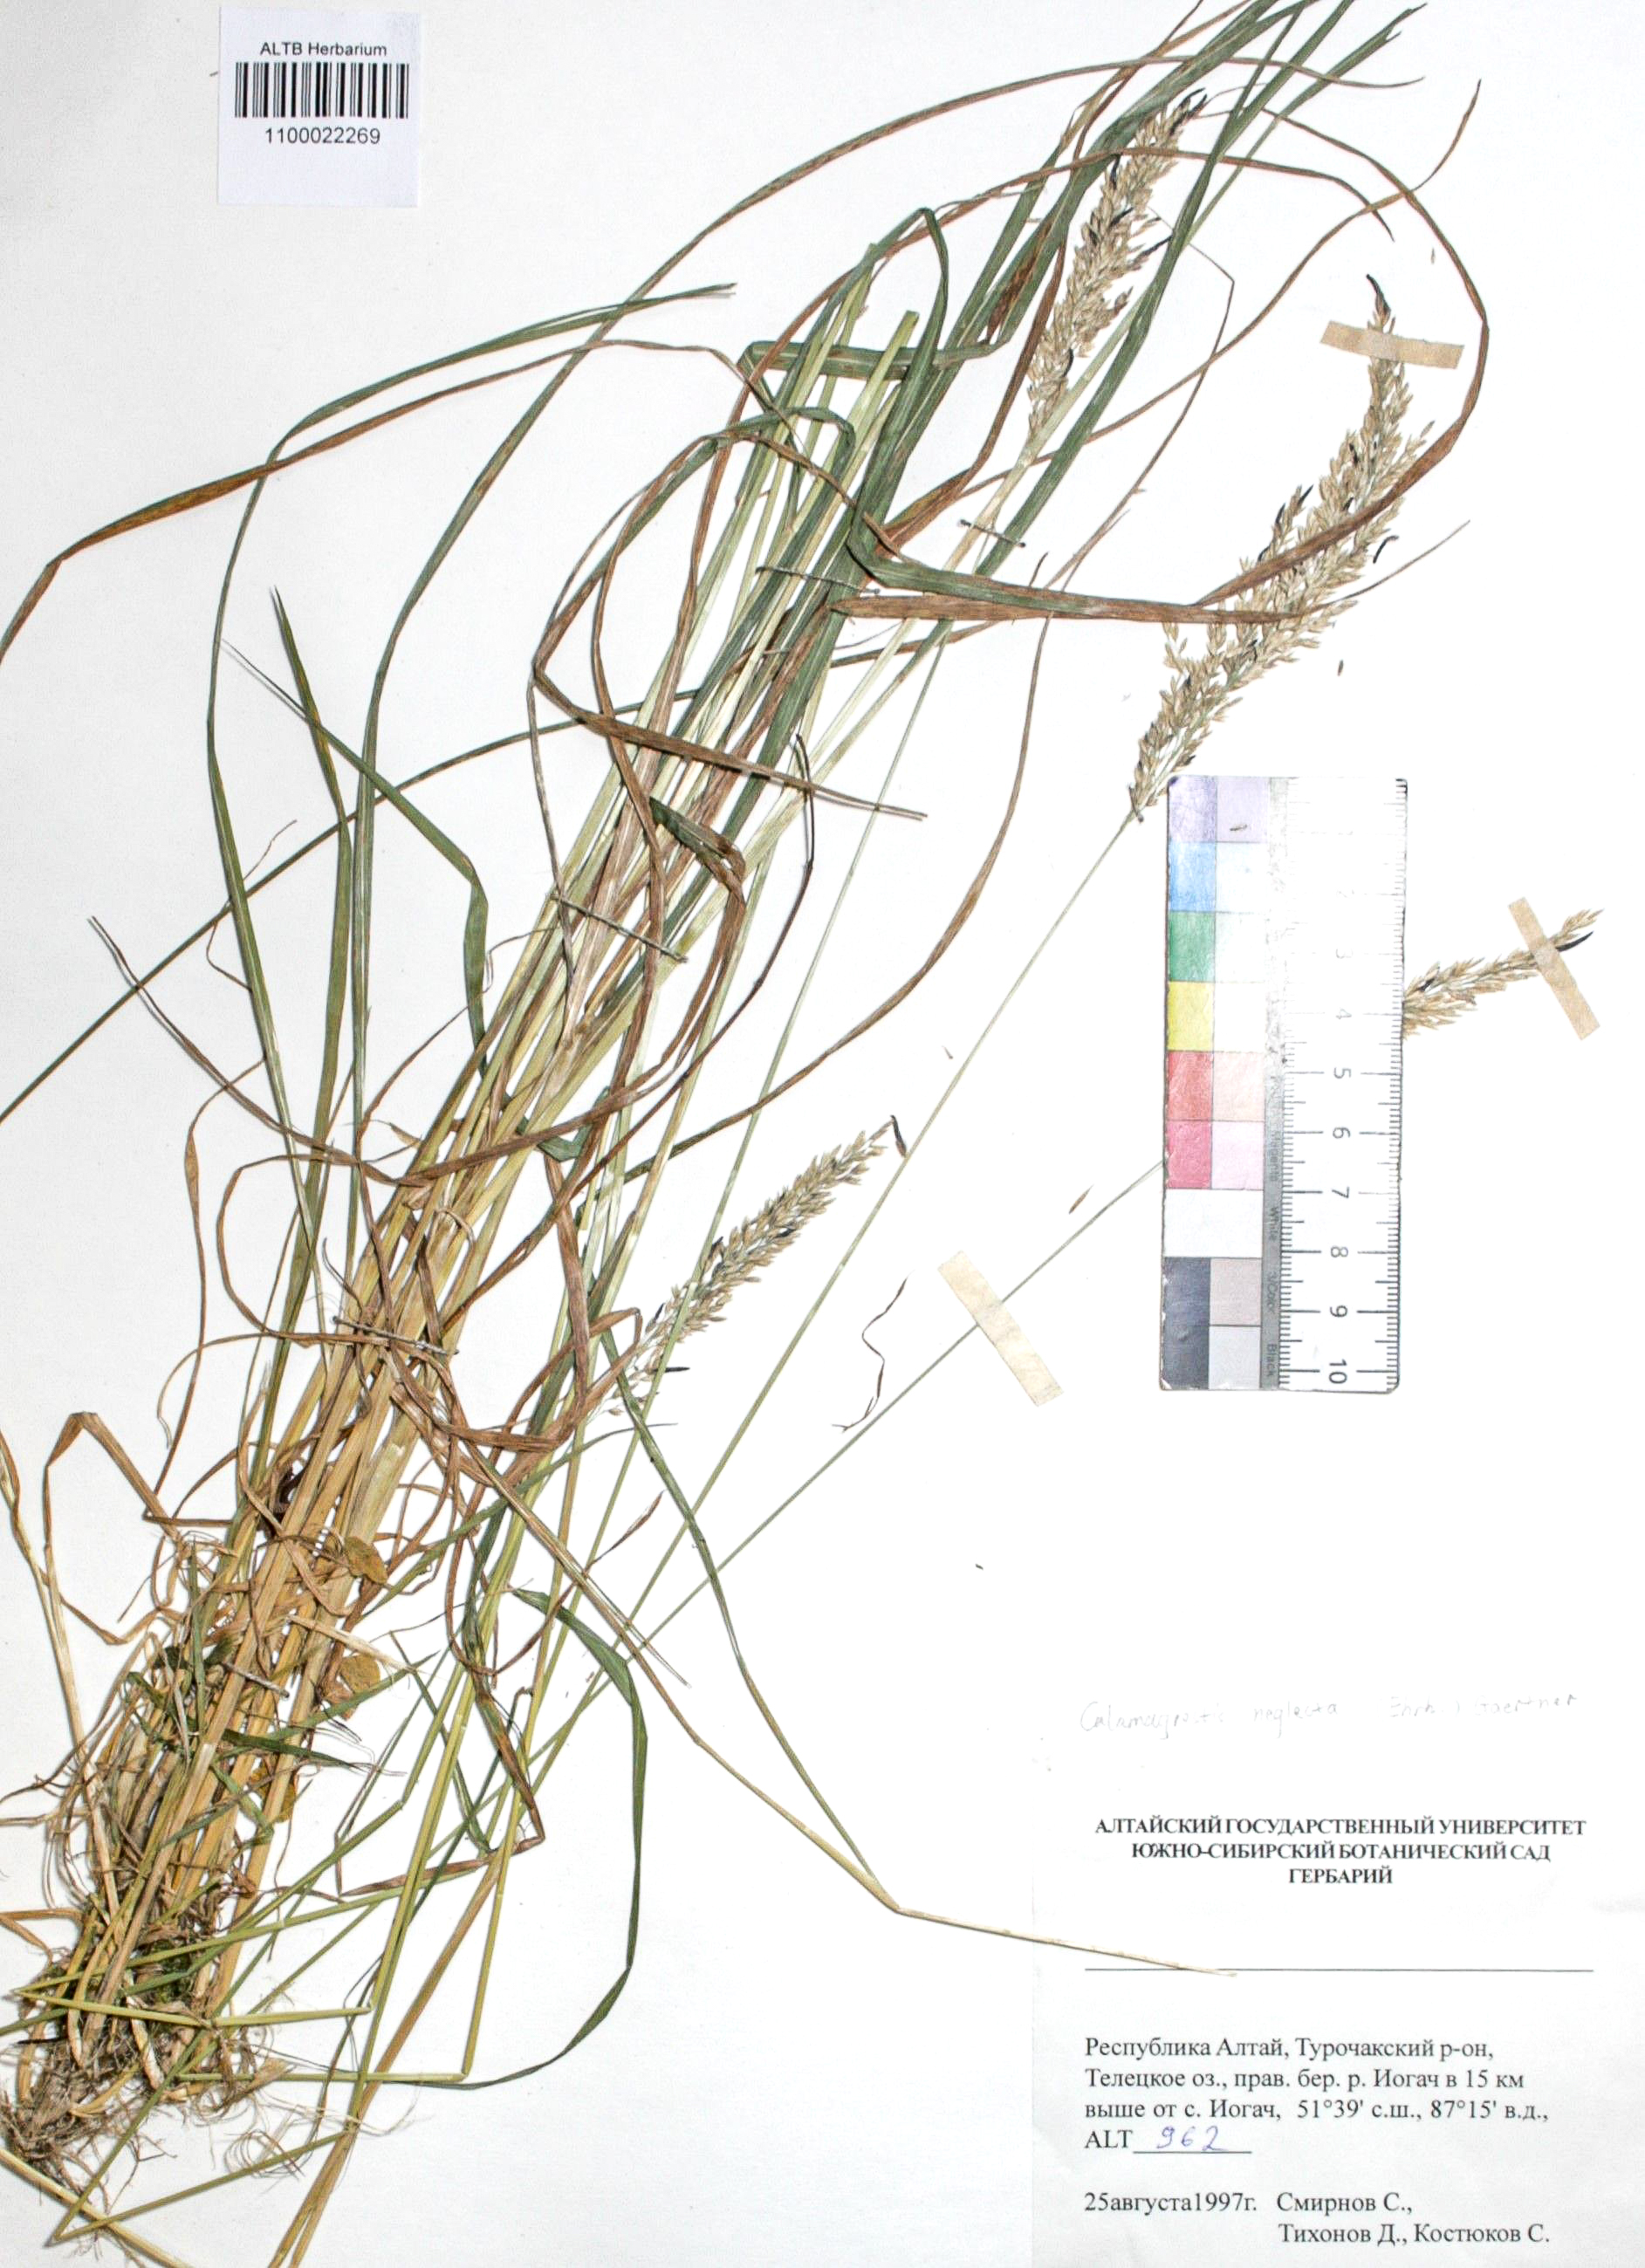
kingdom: Plantae
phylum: Tracheophyta
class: Liliopsida
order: Poales
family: Poaceae
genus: Achnatherum
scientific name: Achnatherum calamagrostis
